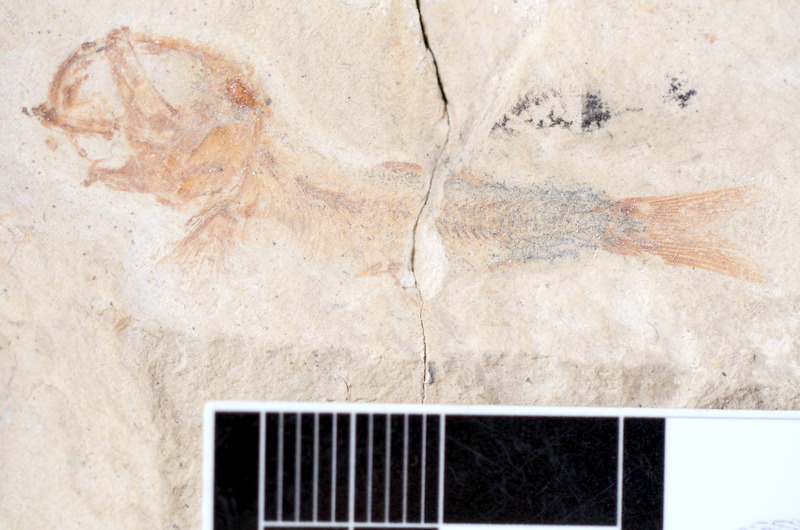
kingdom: Animalia
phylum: Chordata
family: Ascalaboidae
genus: Tharsis
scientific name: Tharsis dubius
